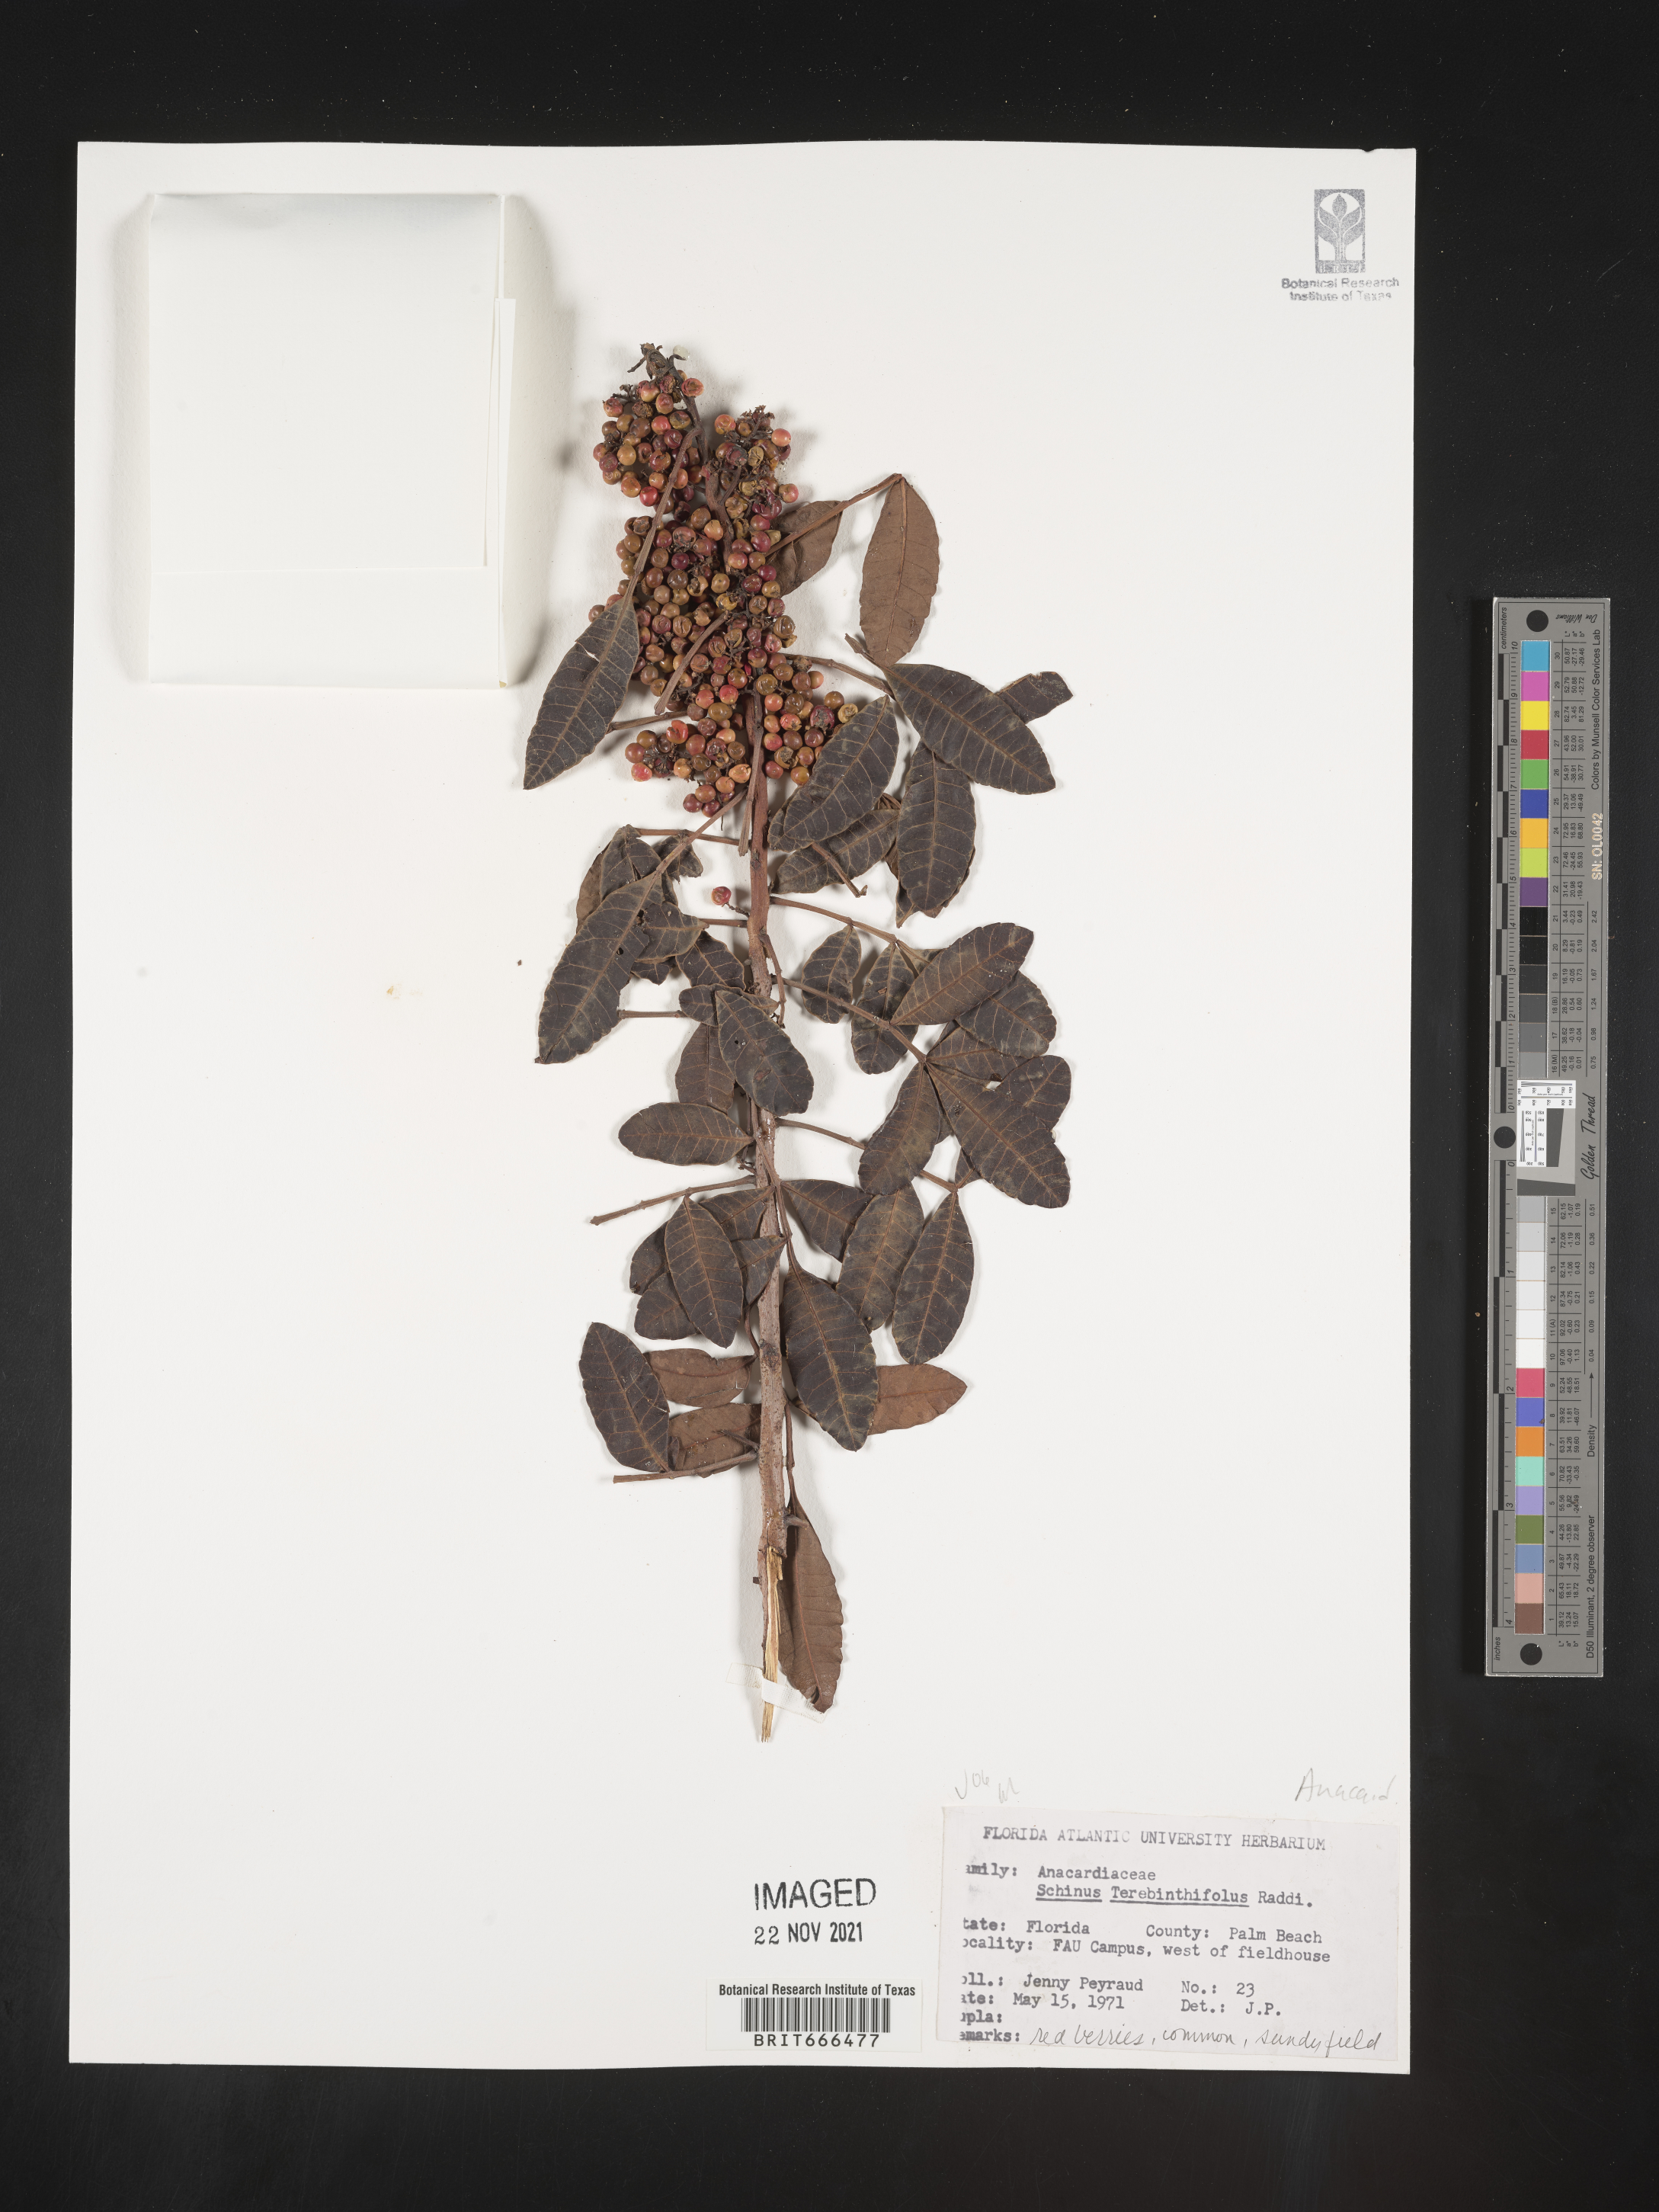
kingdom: Plantae
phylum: Tracheophyta
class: Magnoliopsida
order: Sapindales
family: Anacardiaceae
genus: Schinus
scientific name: Schinus
